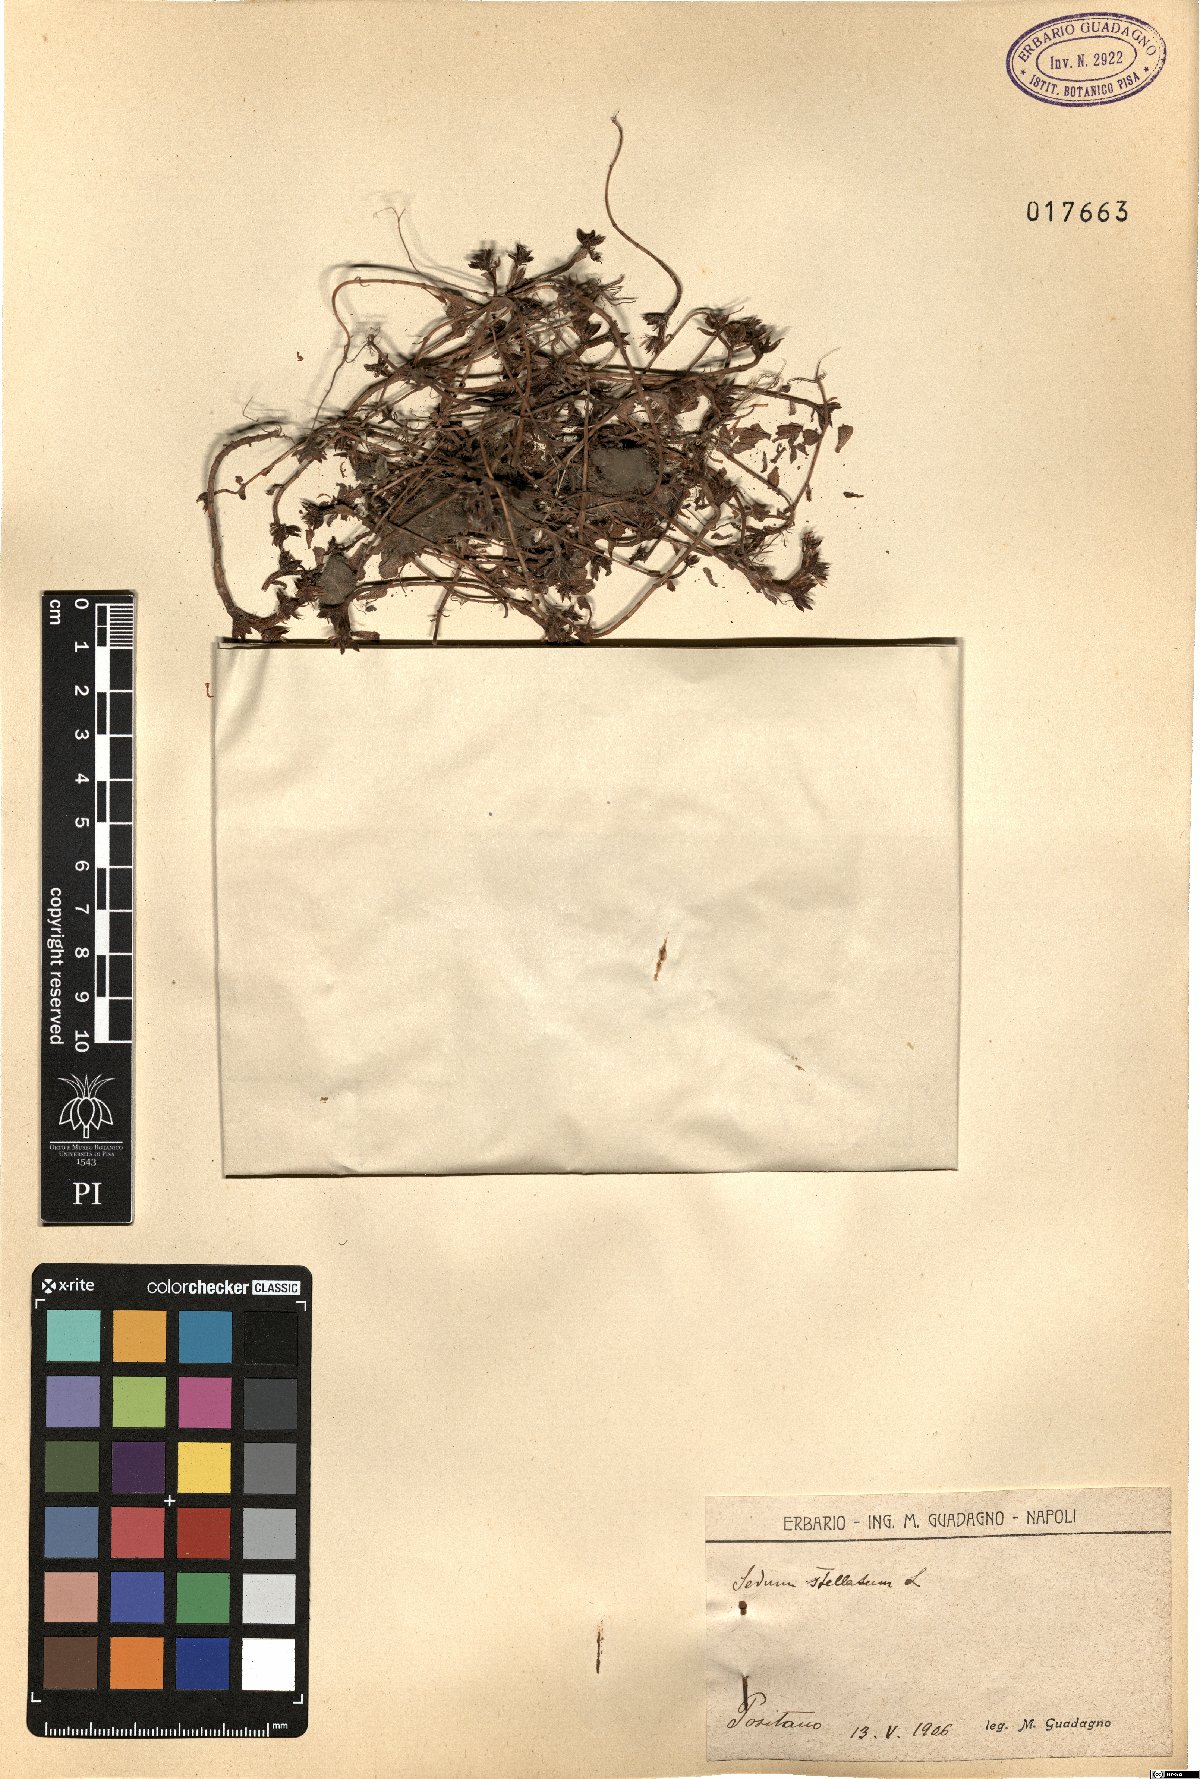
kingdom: Plantae
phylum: Tracheophyta
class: Magnoliopsida
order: Saxifragales
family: Crassulaceae
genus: Phedimus
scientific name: Phedimus stellatus
